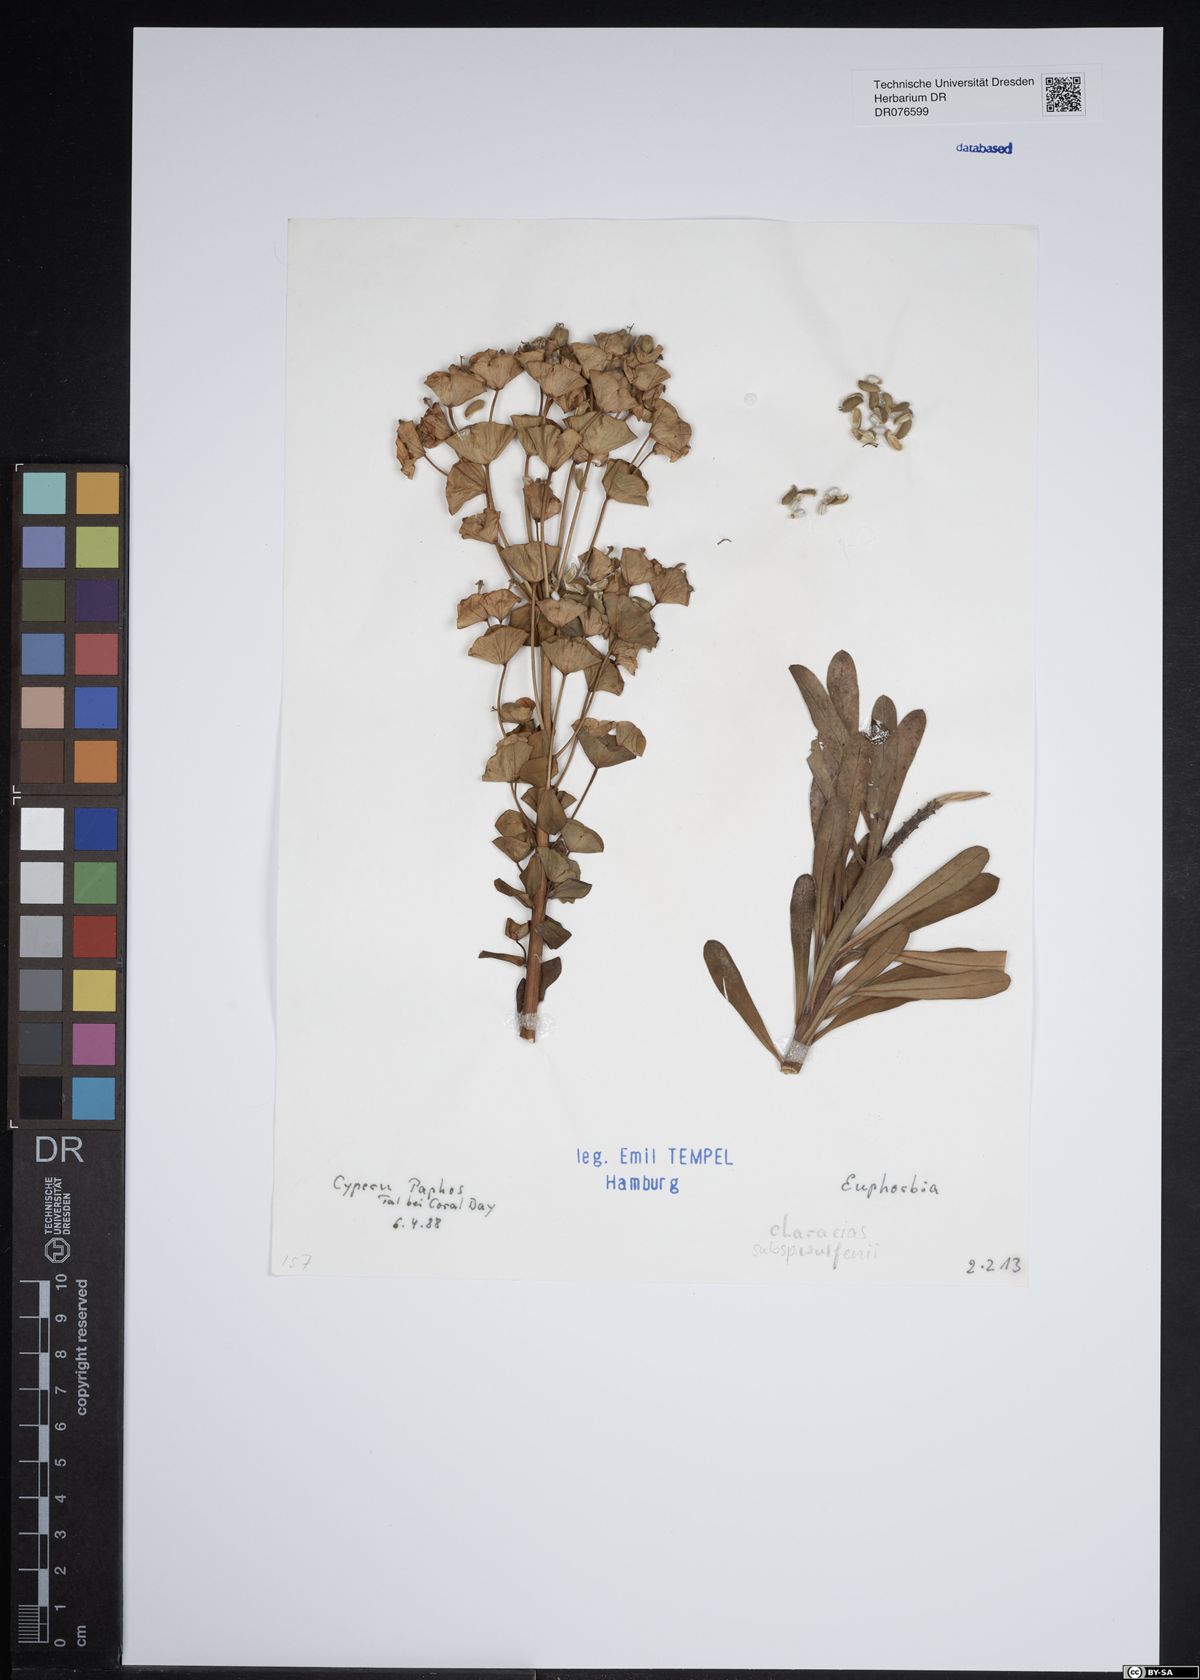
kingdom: Plantae
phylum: Tracheophyta
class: Magnoliopsida
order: Malpighiales
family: Euphorbiaceae
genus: Euphorbia
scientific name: Euphorbia characias
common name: Mediterranean spurge
